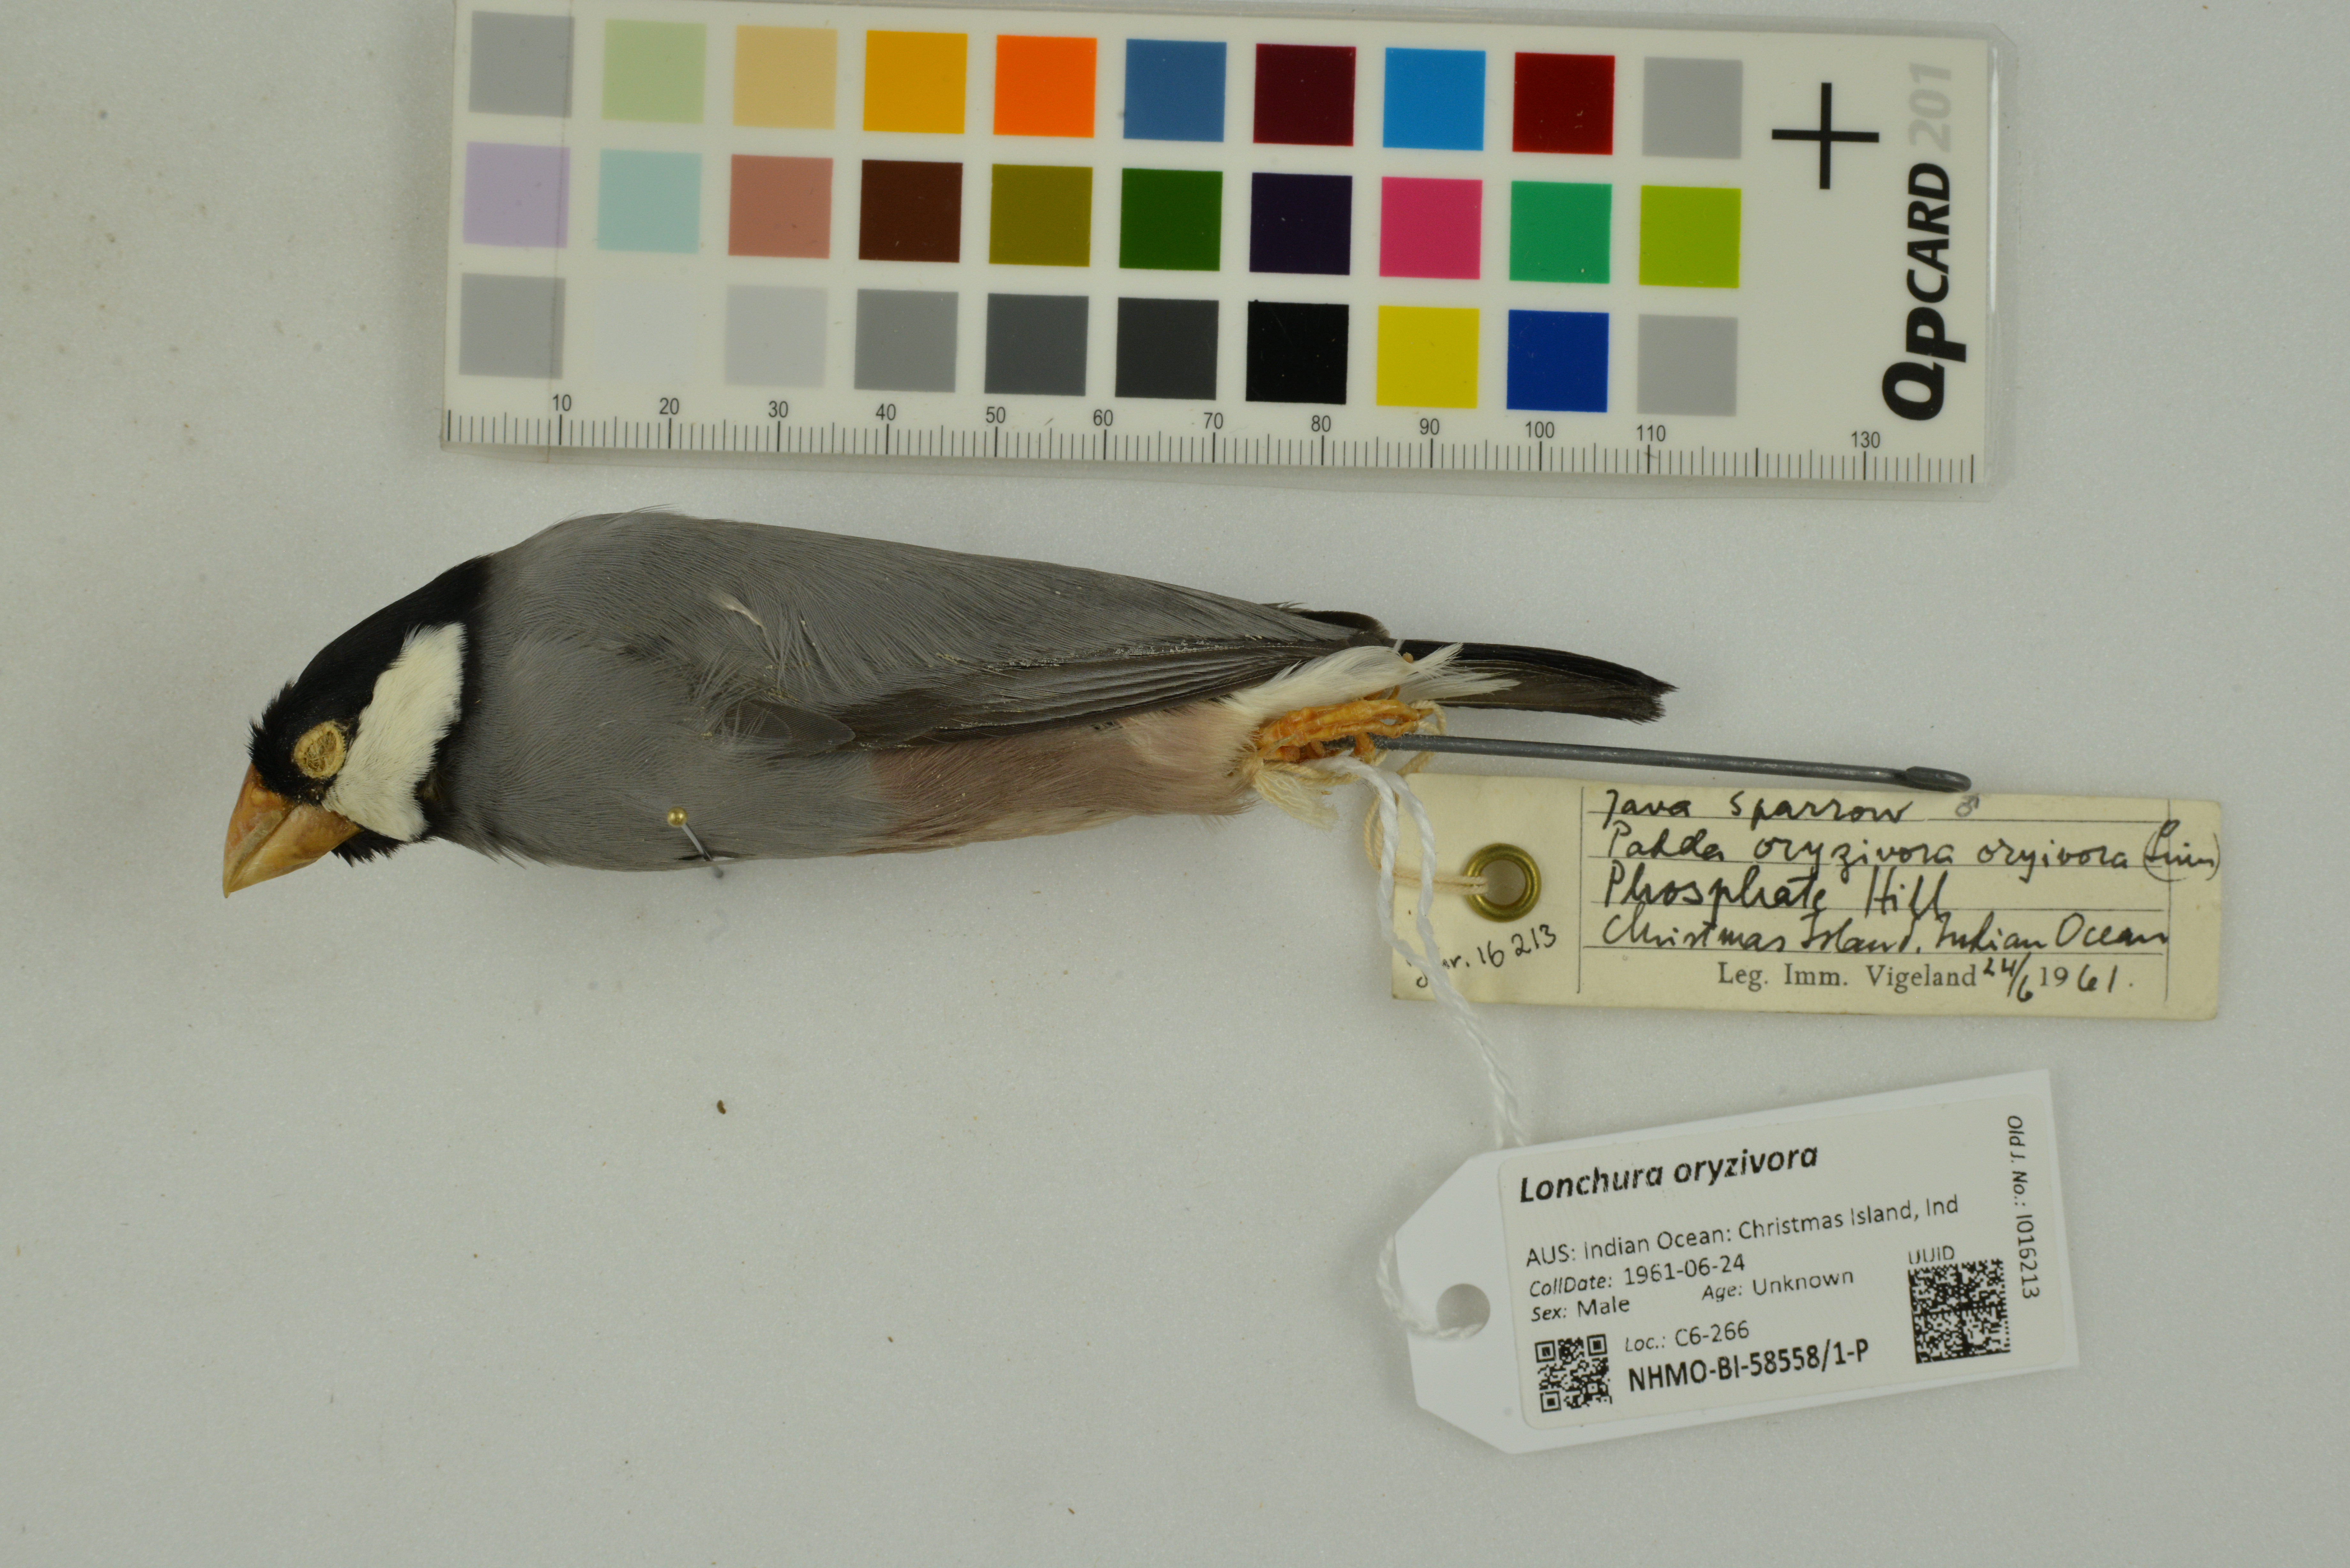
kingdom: Animalia
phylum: Chordata
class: Aves
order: Passeriformes
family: Estrildidae
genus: Lonchura
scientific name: Lonchura oryzivora
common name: Java sparrow
